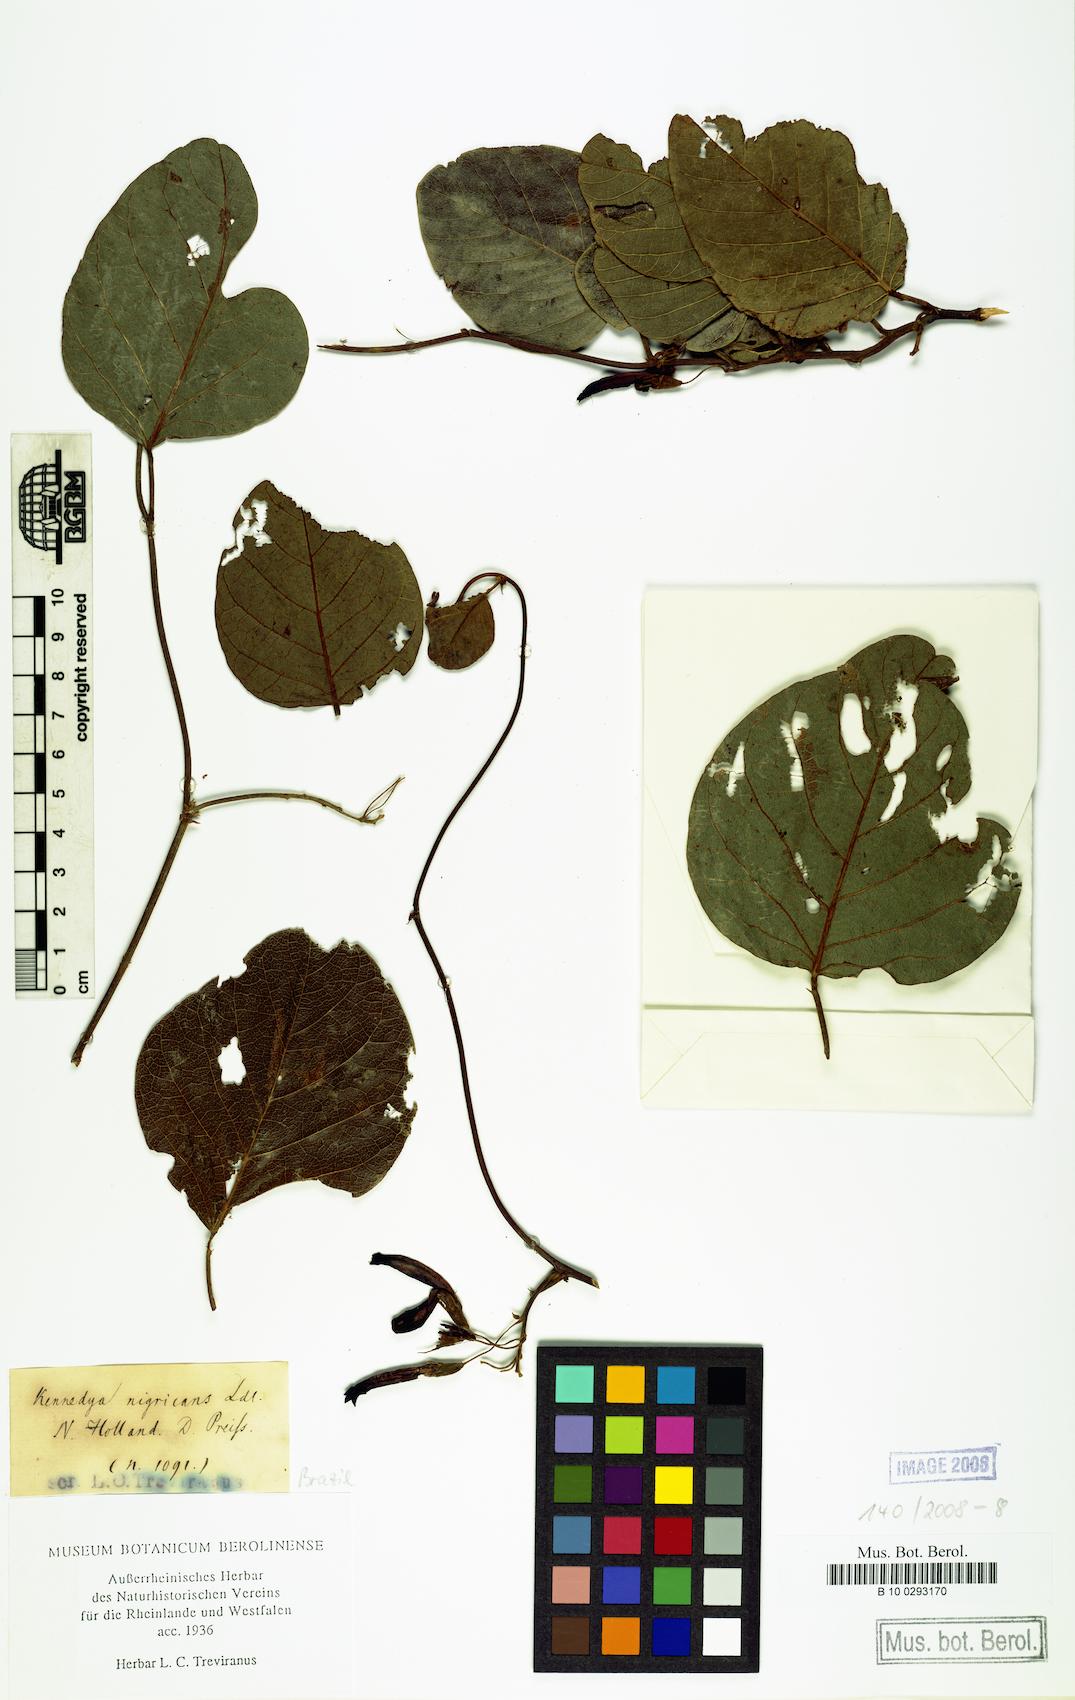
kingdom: Plantae
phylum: Tracheophyta
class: Magnoliopsida
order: Fabales
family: Fabaceae
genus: Kennedia
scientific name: Kennedia nigricans
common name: Black-bean
